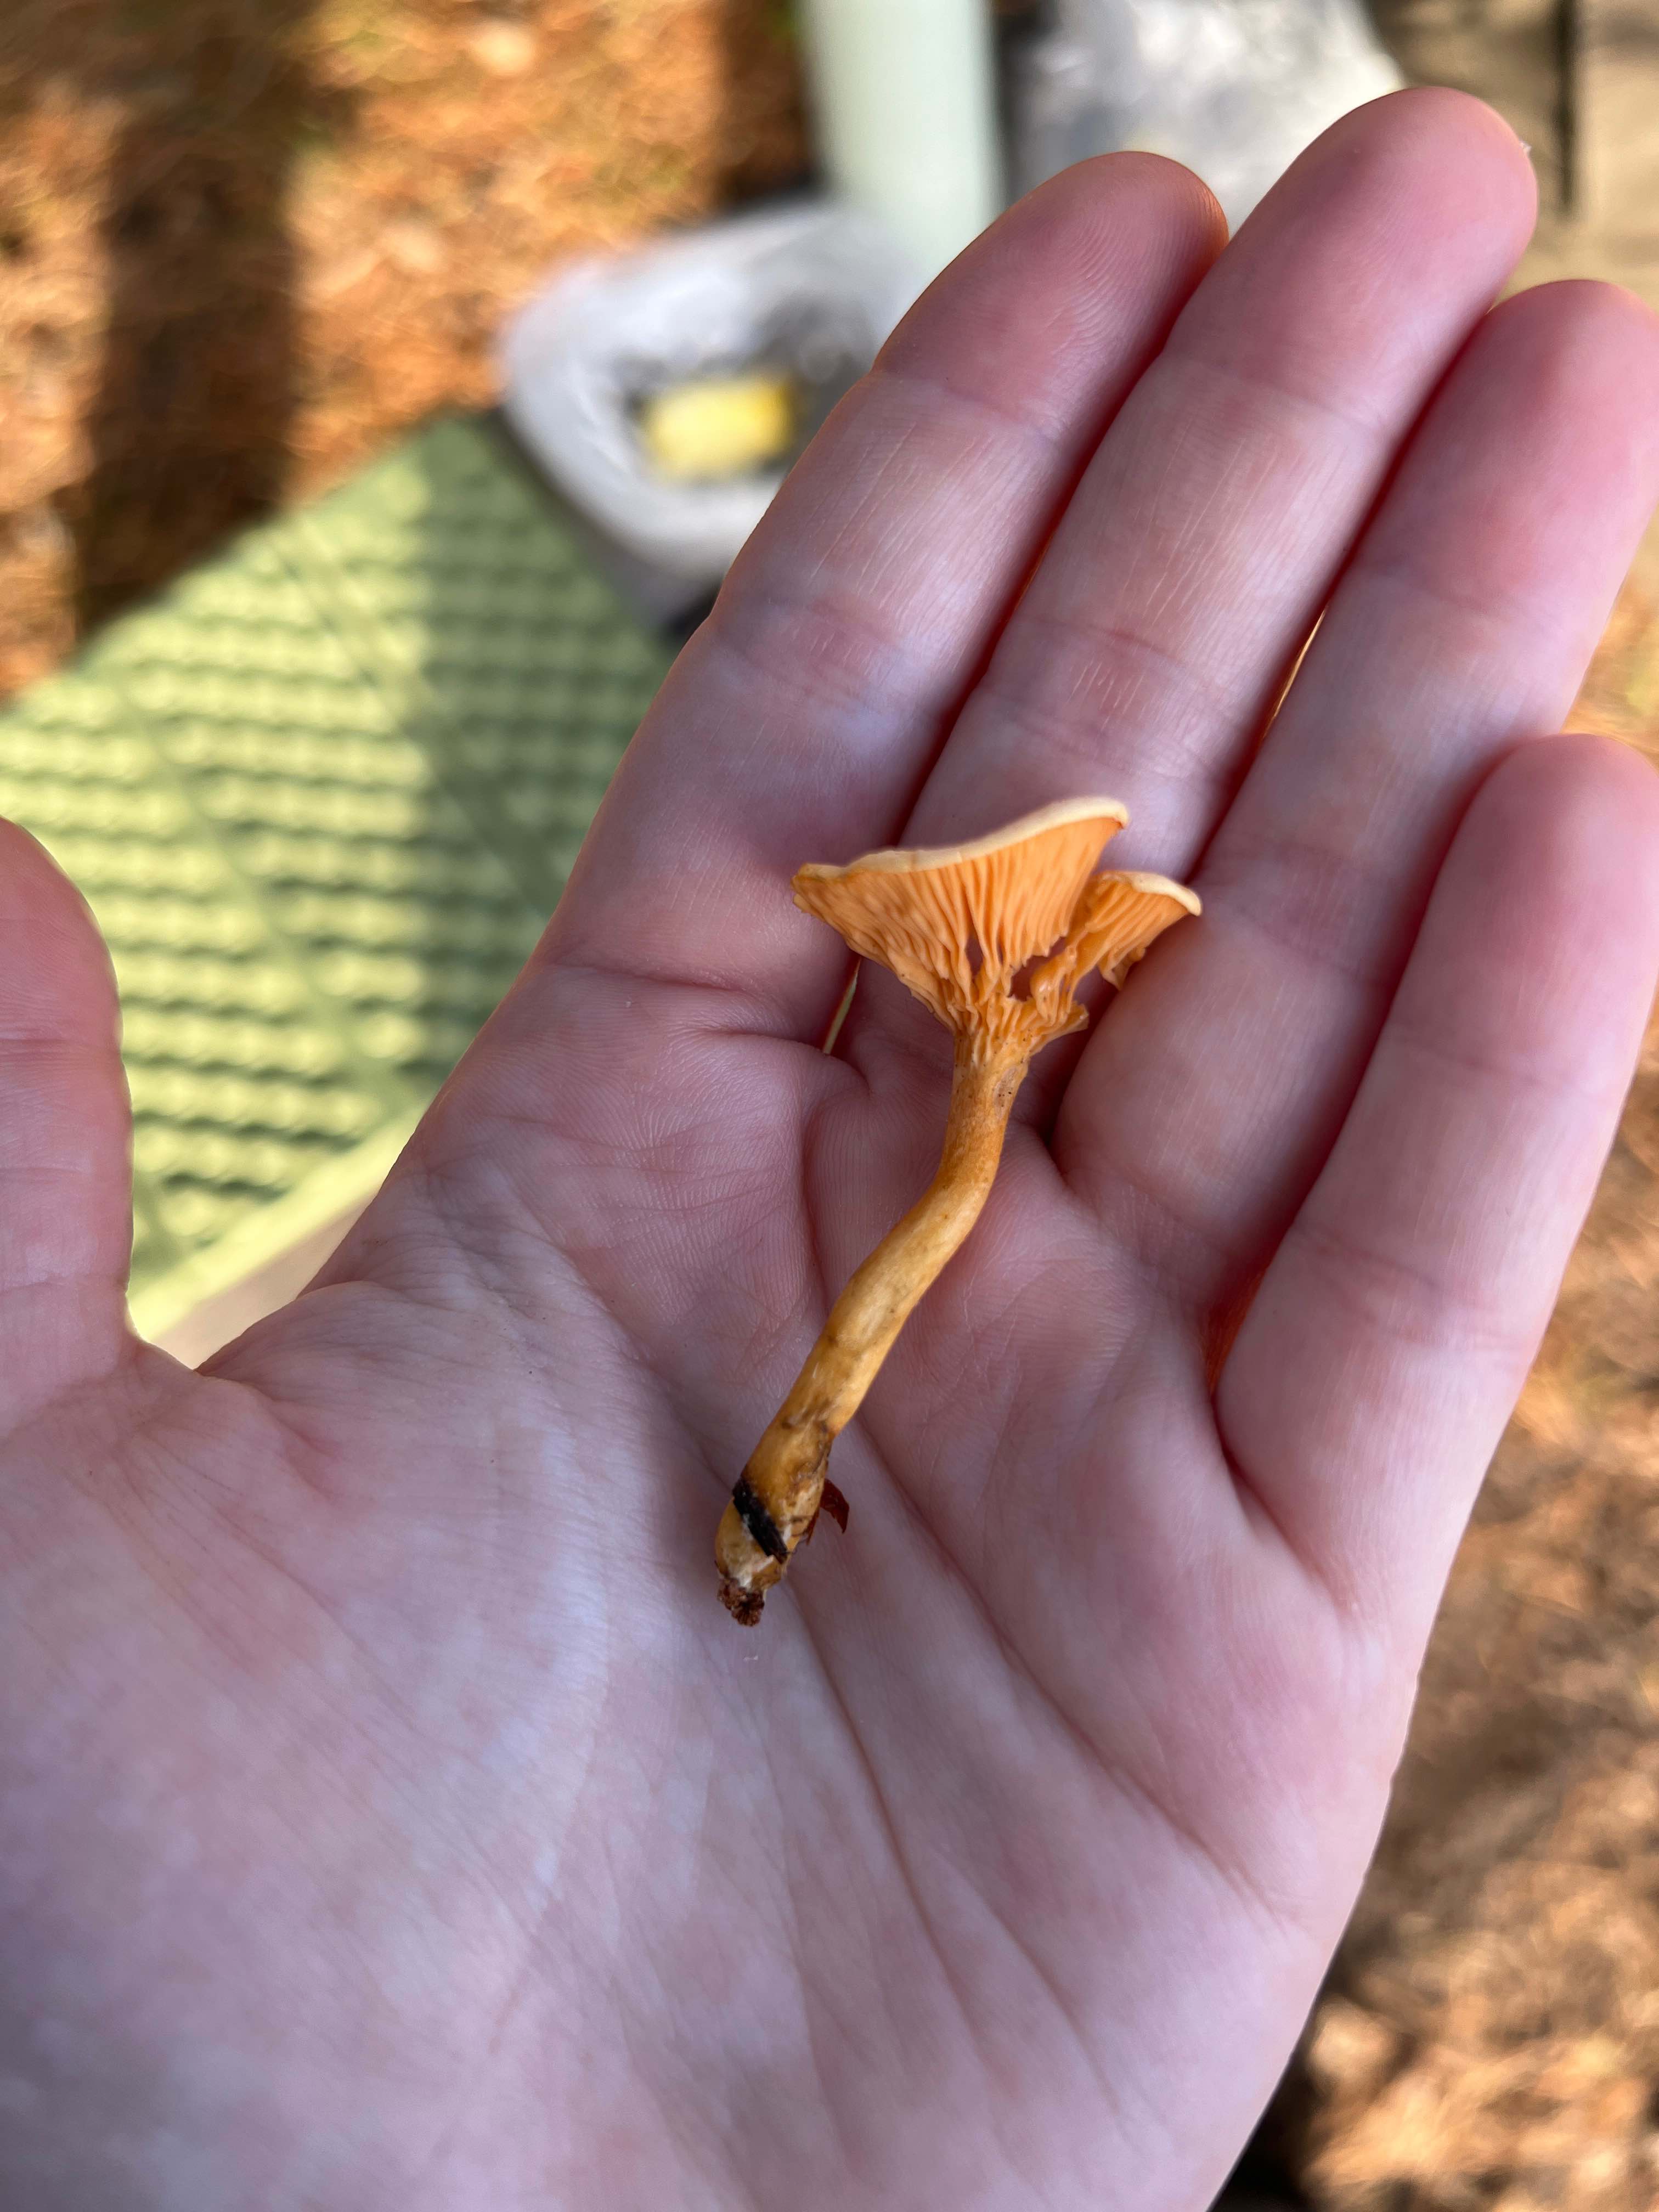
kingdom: Fungi
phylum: Basidiomycota
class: Agaricomycetes
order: Boletales
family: Hygrophoropsidaceae
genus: Hygrophoropsis
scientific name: Hygrophoropsis aurantiaca
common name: almindelig orangekantarel
